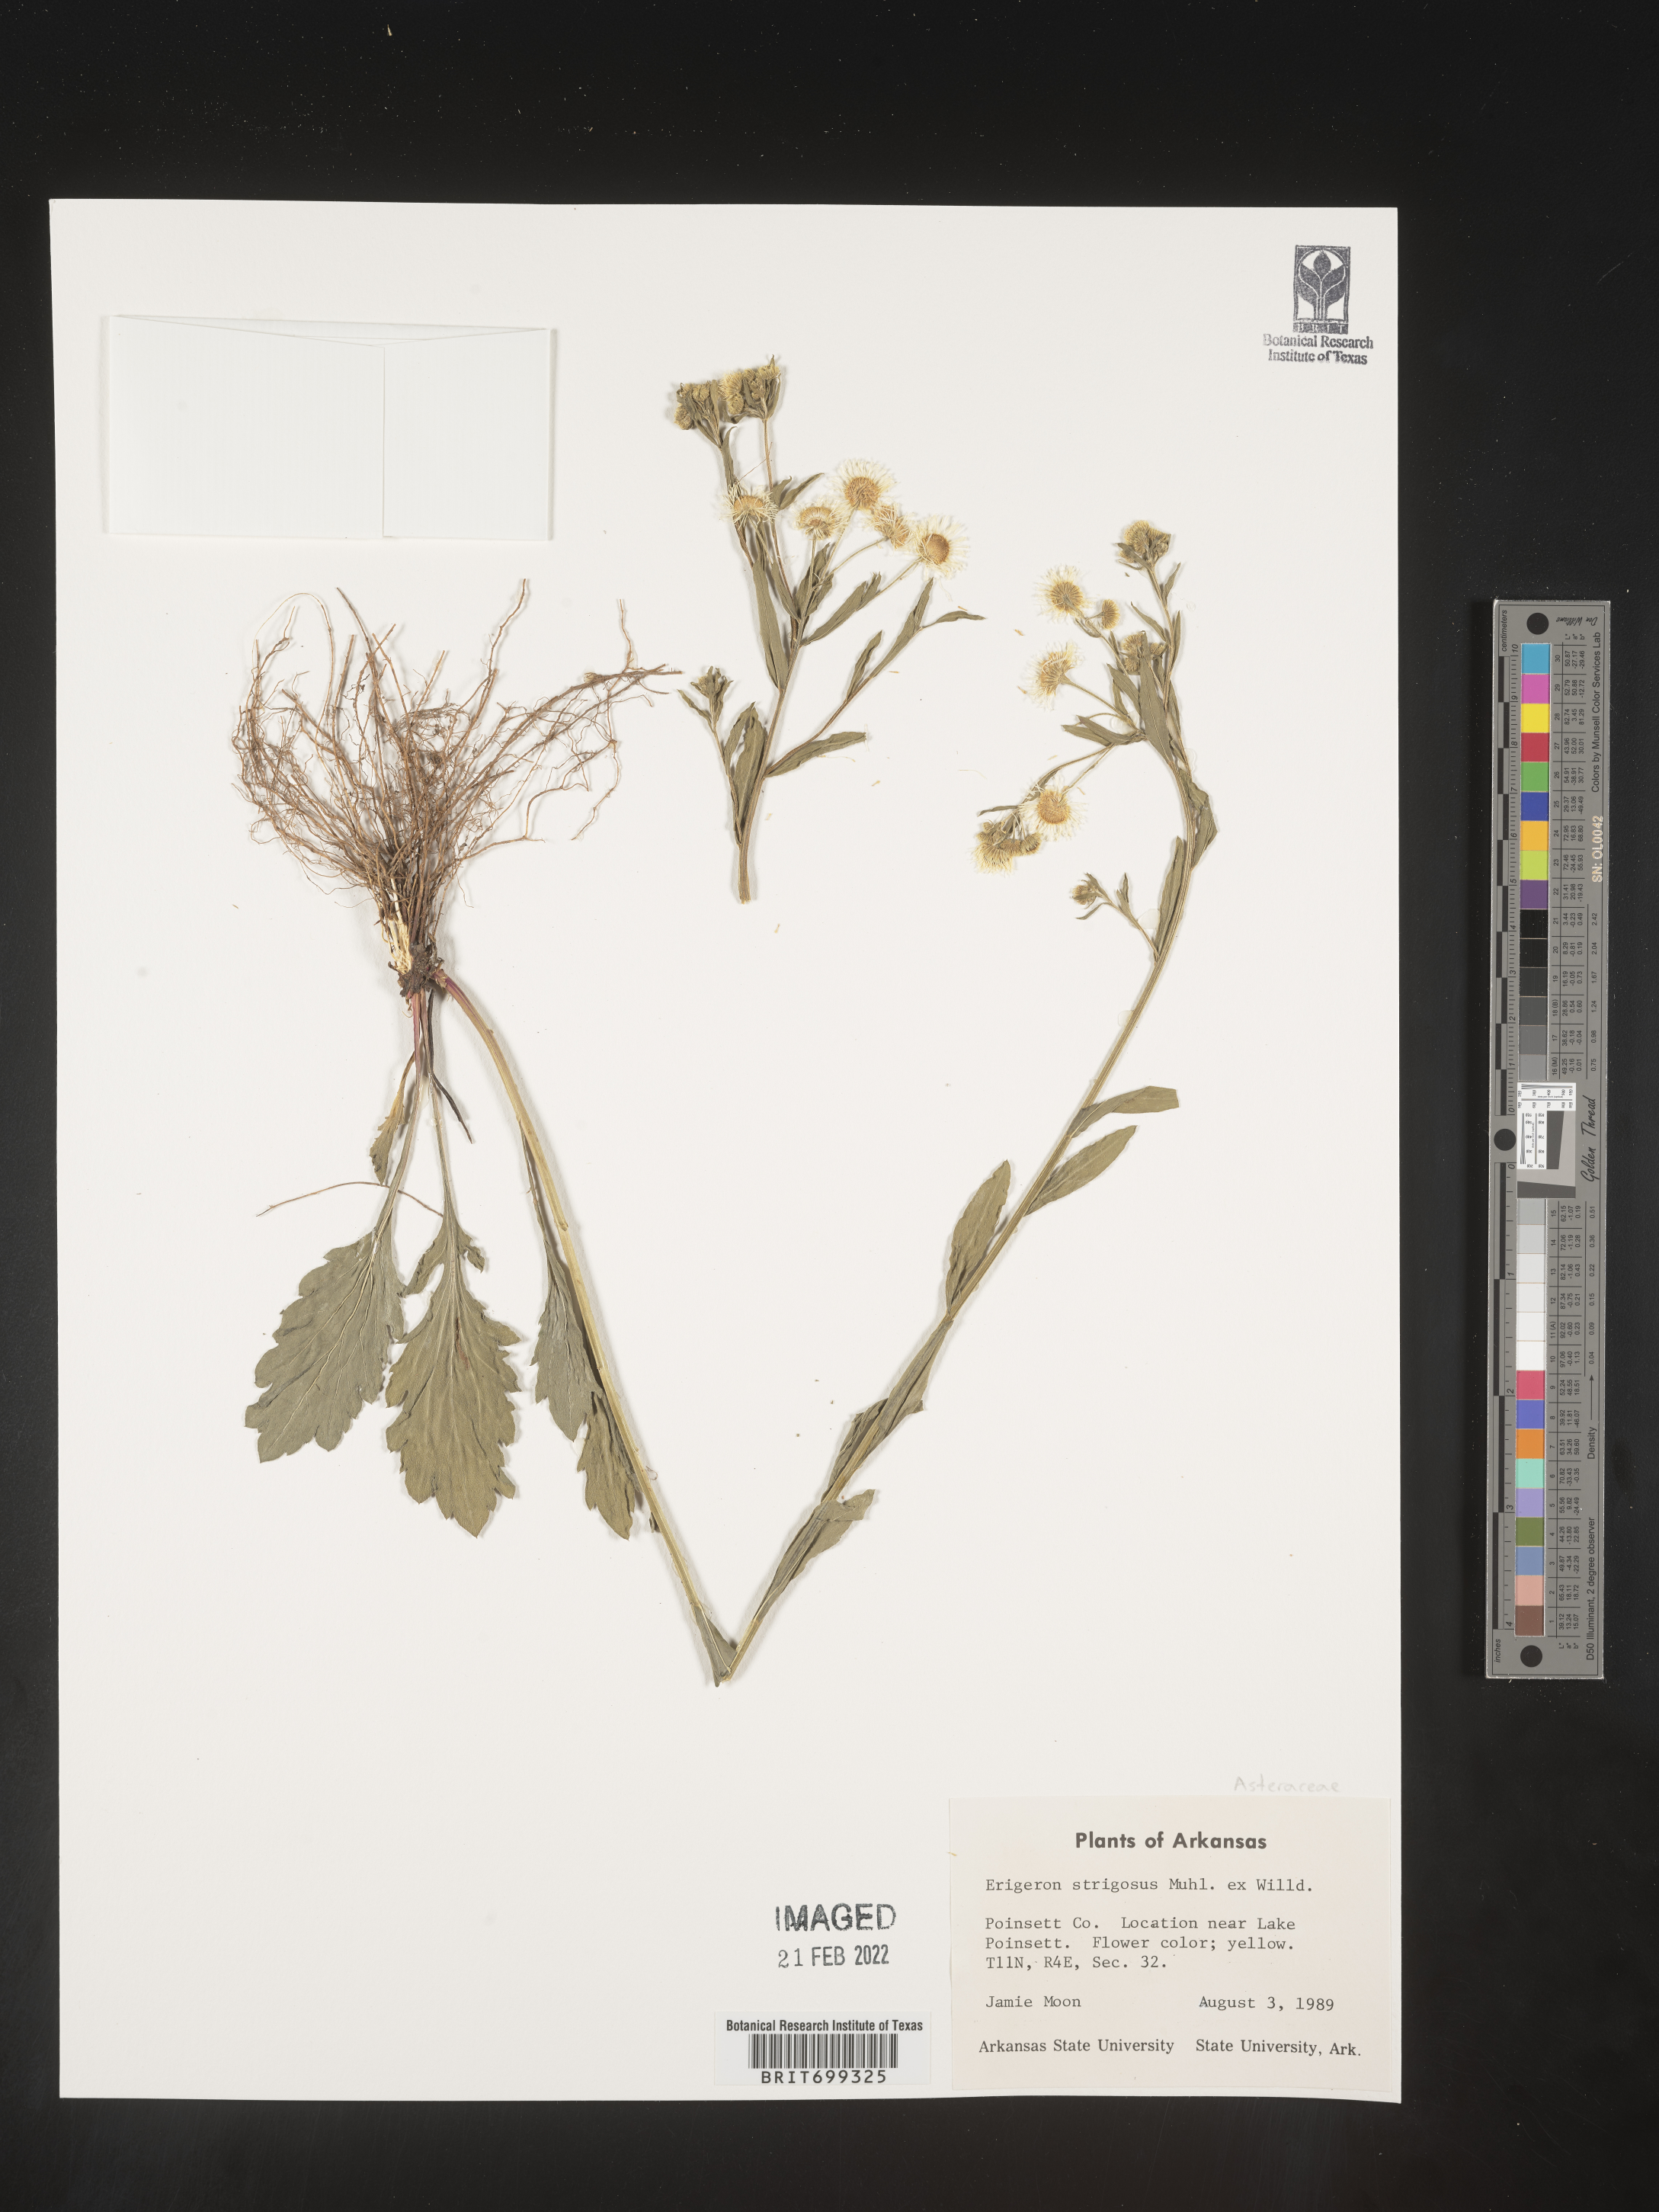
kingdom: Plantae
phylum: Tracheophyta
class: Magnoliopsida
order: Asterales
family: Asteraceae
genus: Erigeron
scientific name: Erigeron strigosus
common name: Common eastern fleabane
